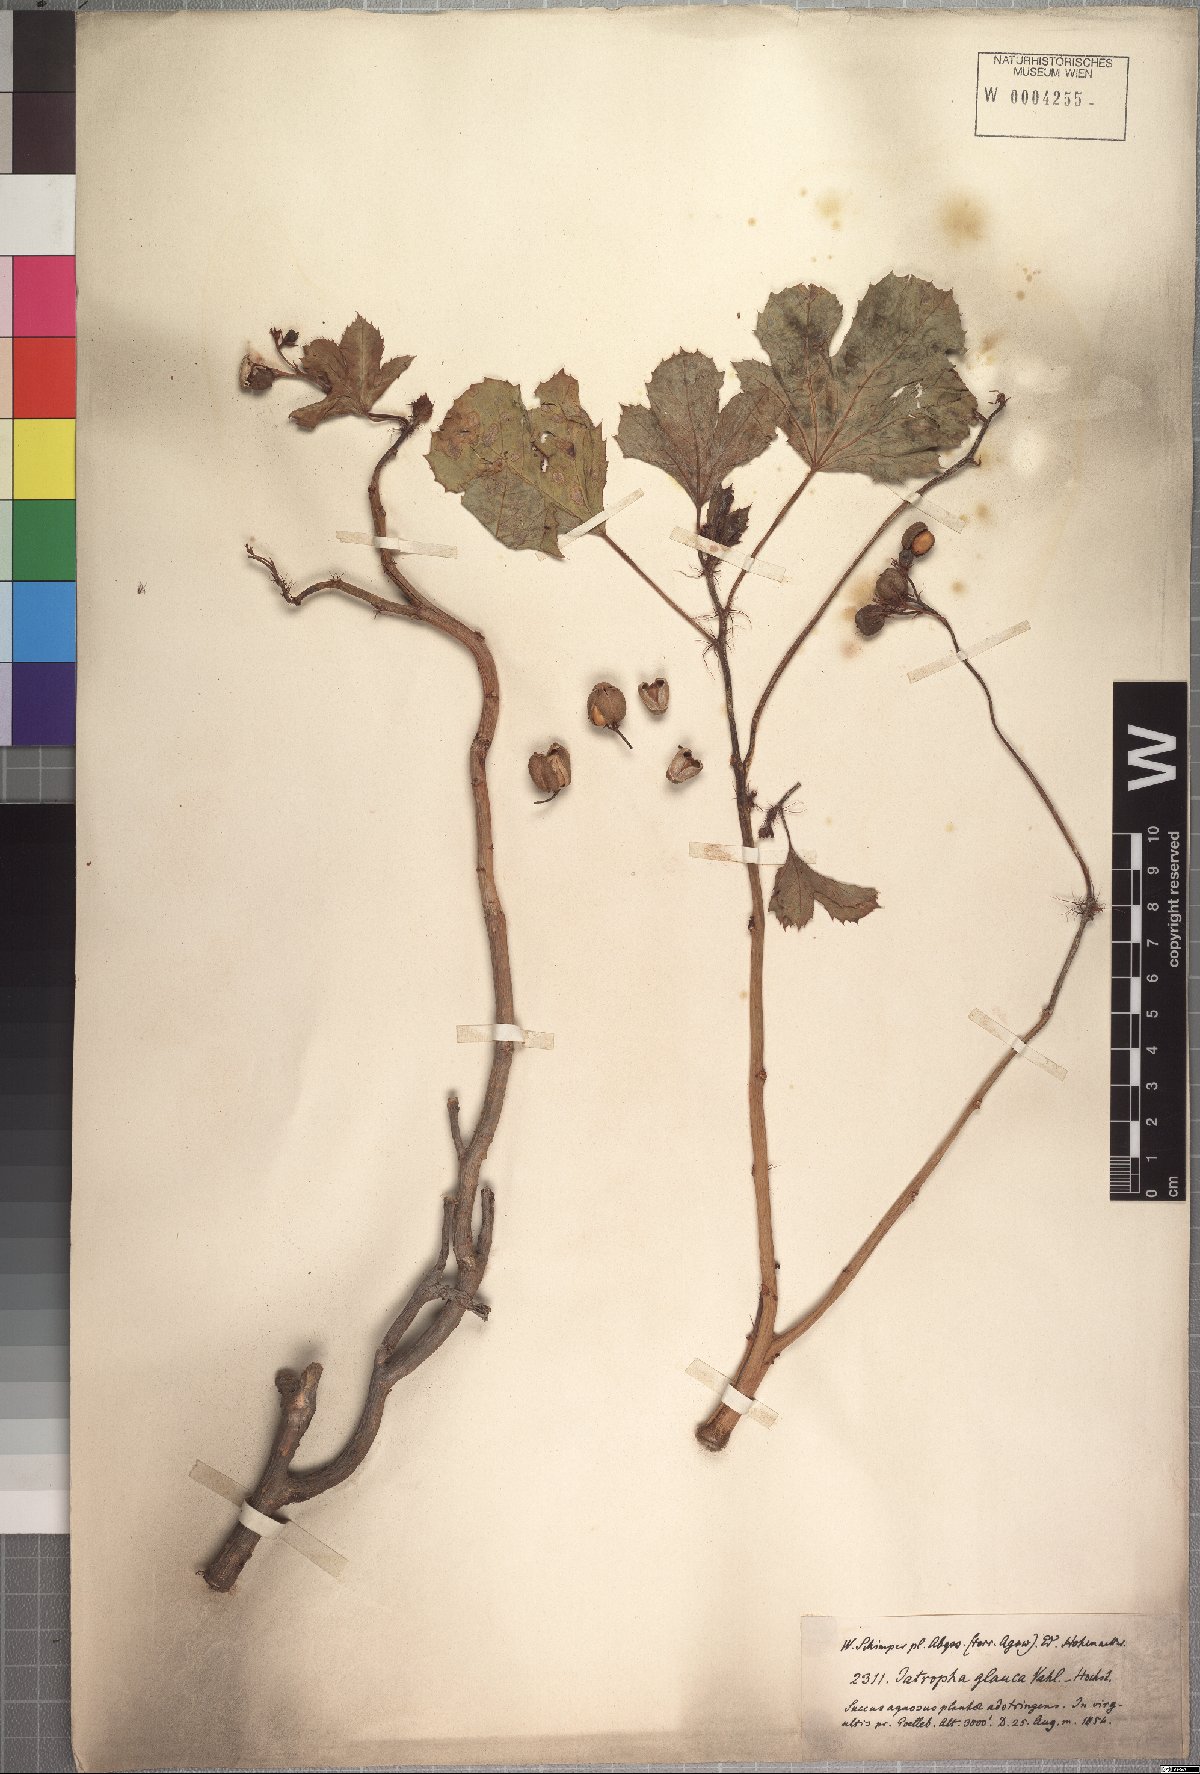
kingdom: Plantae
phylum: Tracheophyta
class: Magnoliopsida
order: Malpighiales
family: Euphorbiaceae
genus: Jatropha
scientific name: Jatropha glauca
